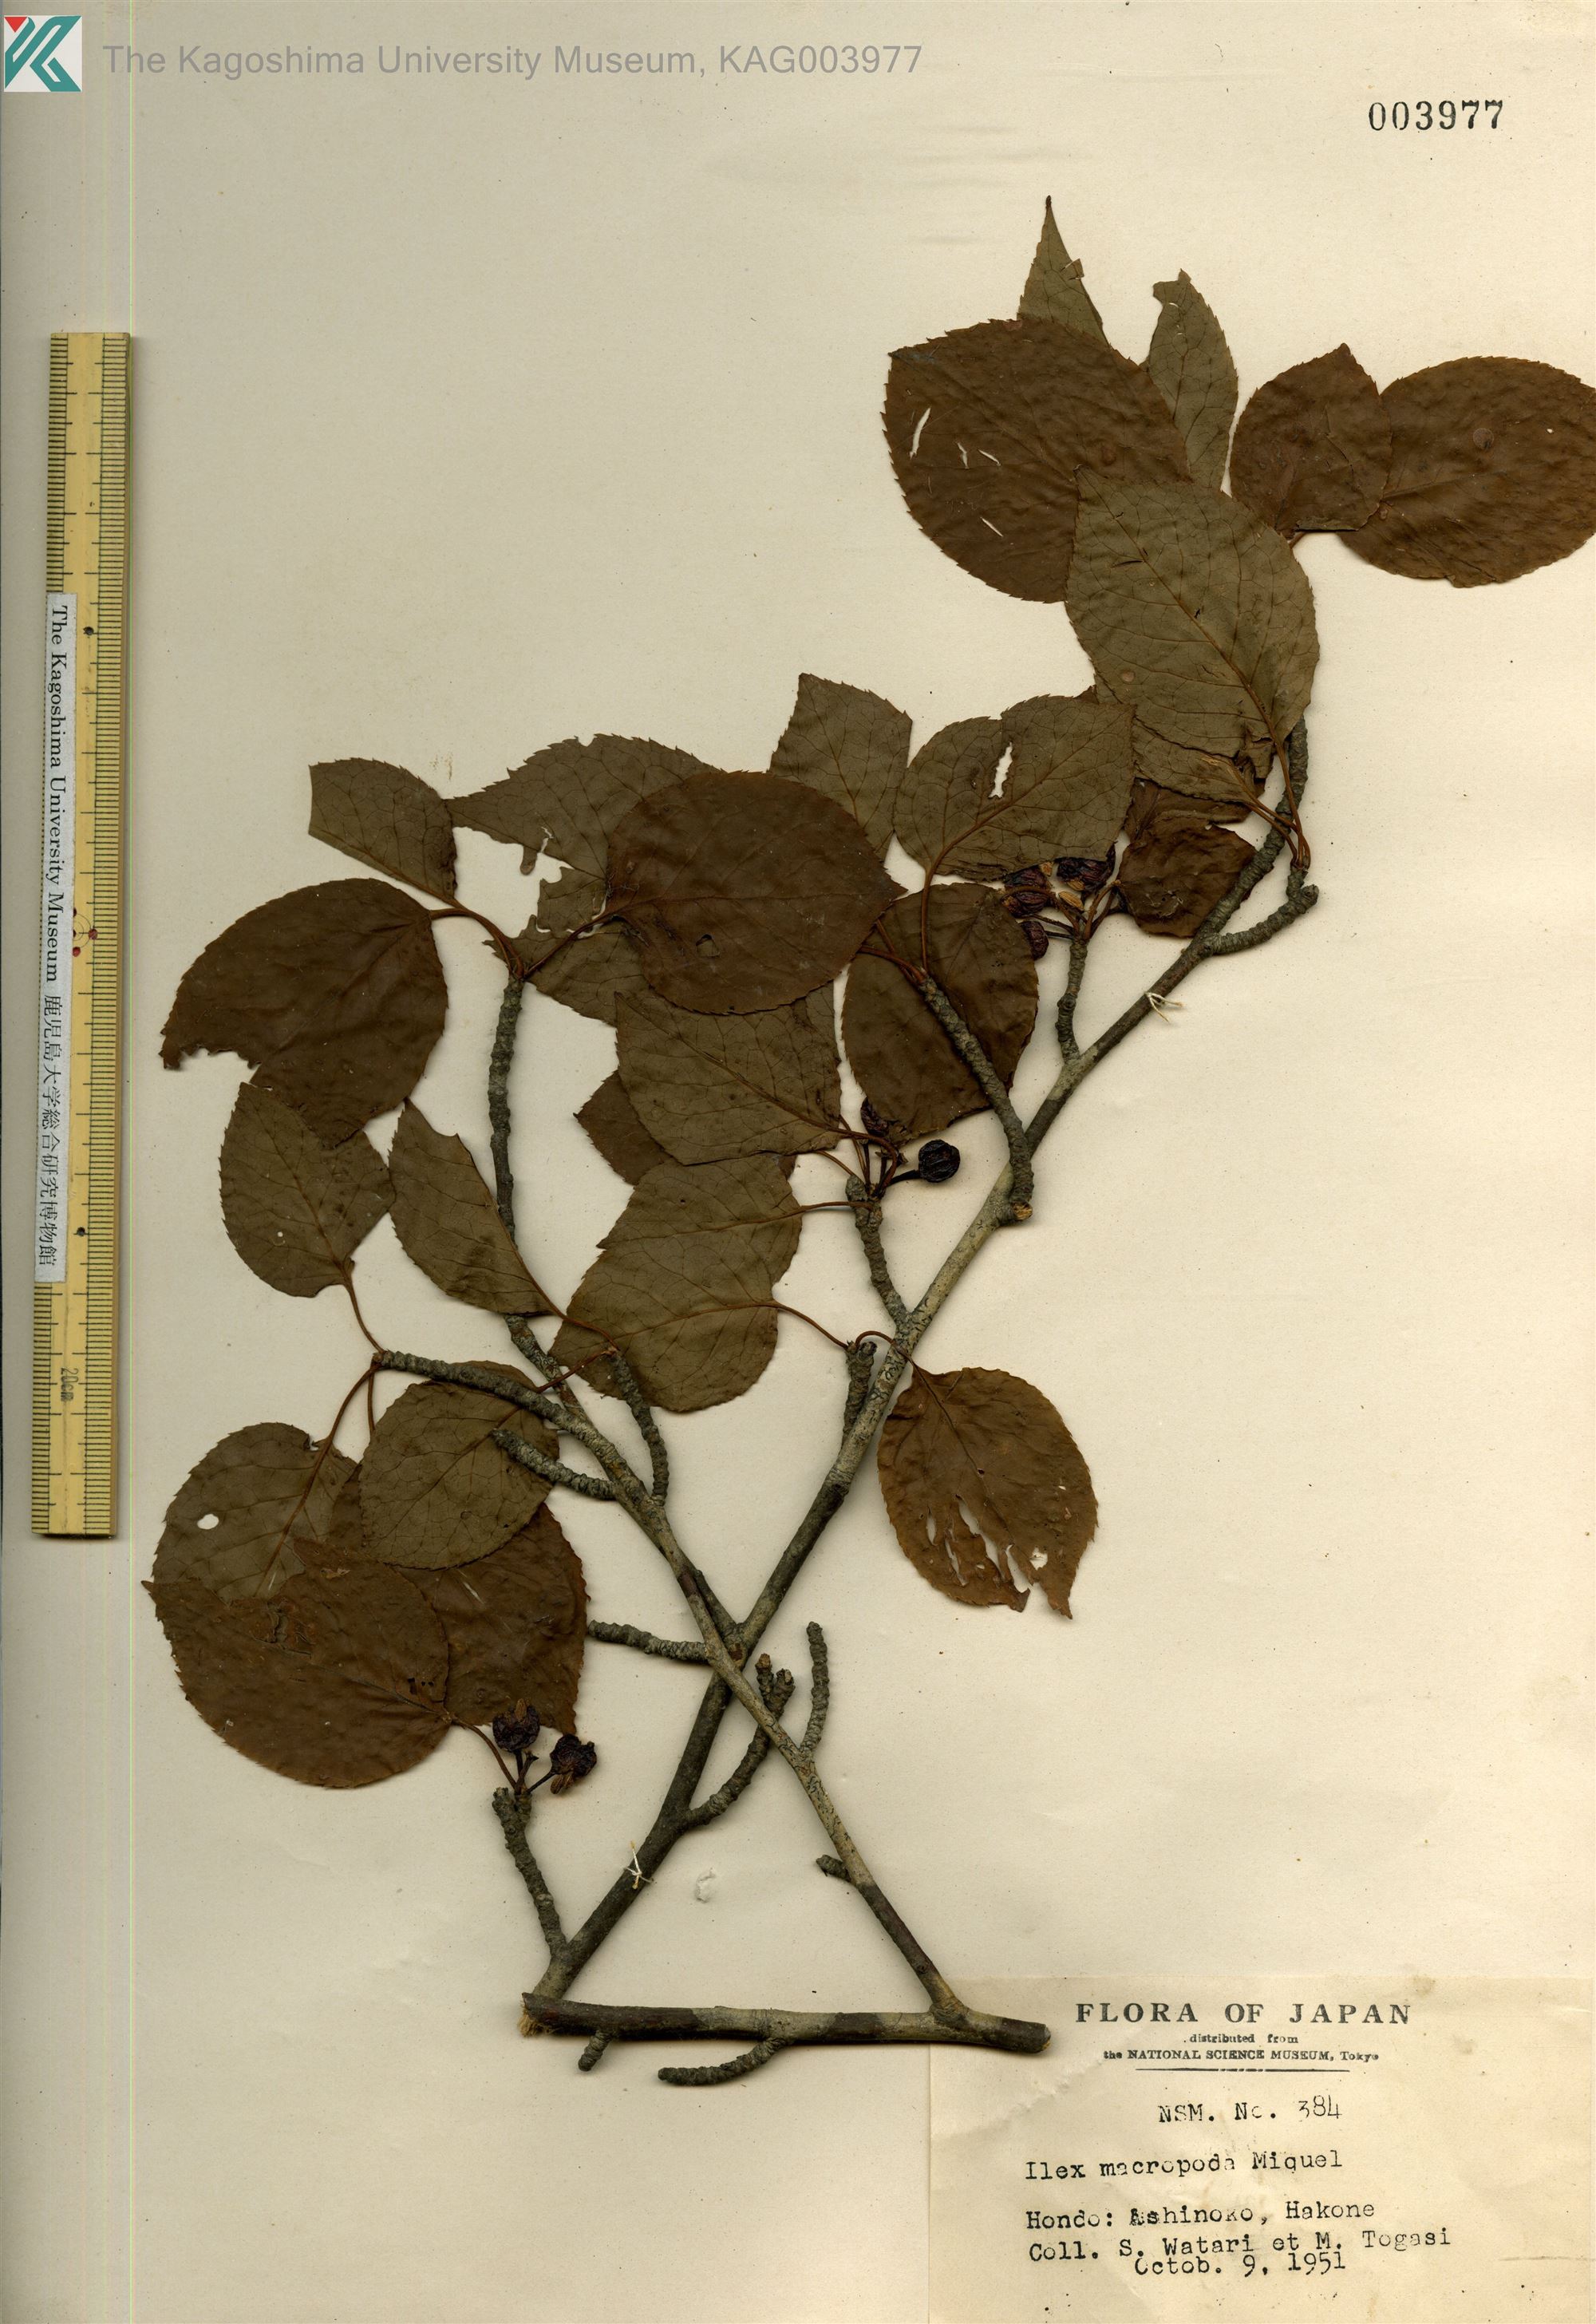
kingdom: Plantae
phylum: Tracheophyta
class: Magnoliopsida
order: Aquifoliales
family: Aquifoliaceae
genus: Ilex
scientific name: Ilex macropoda
